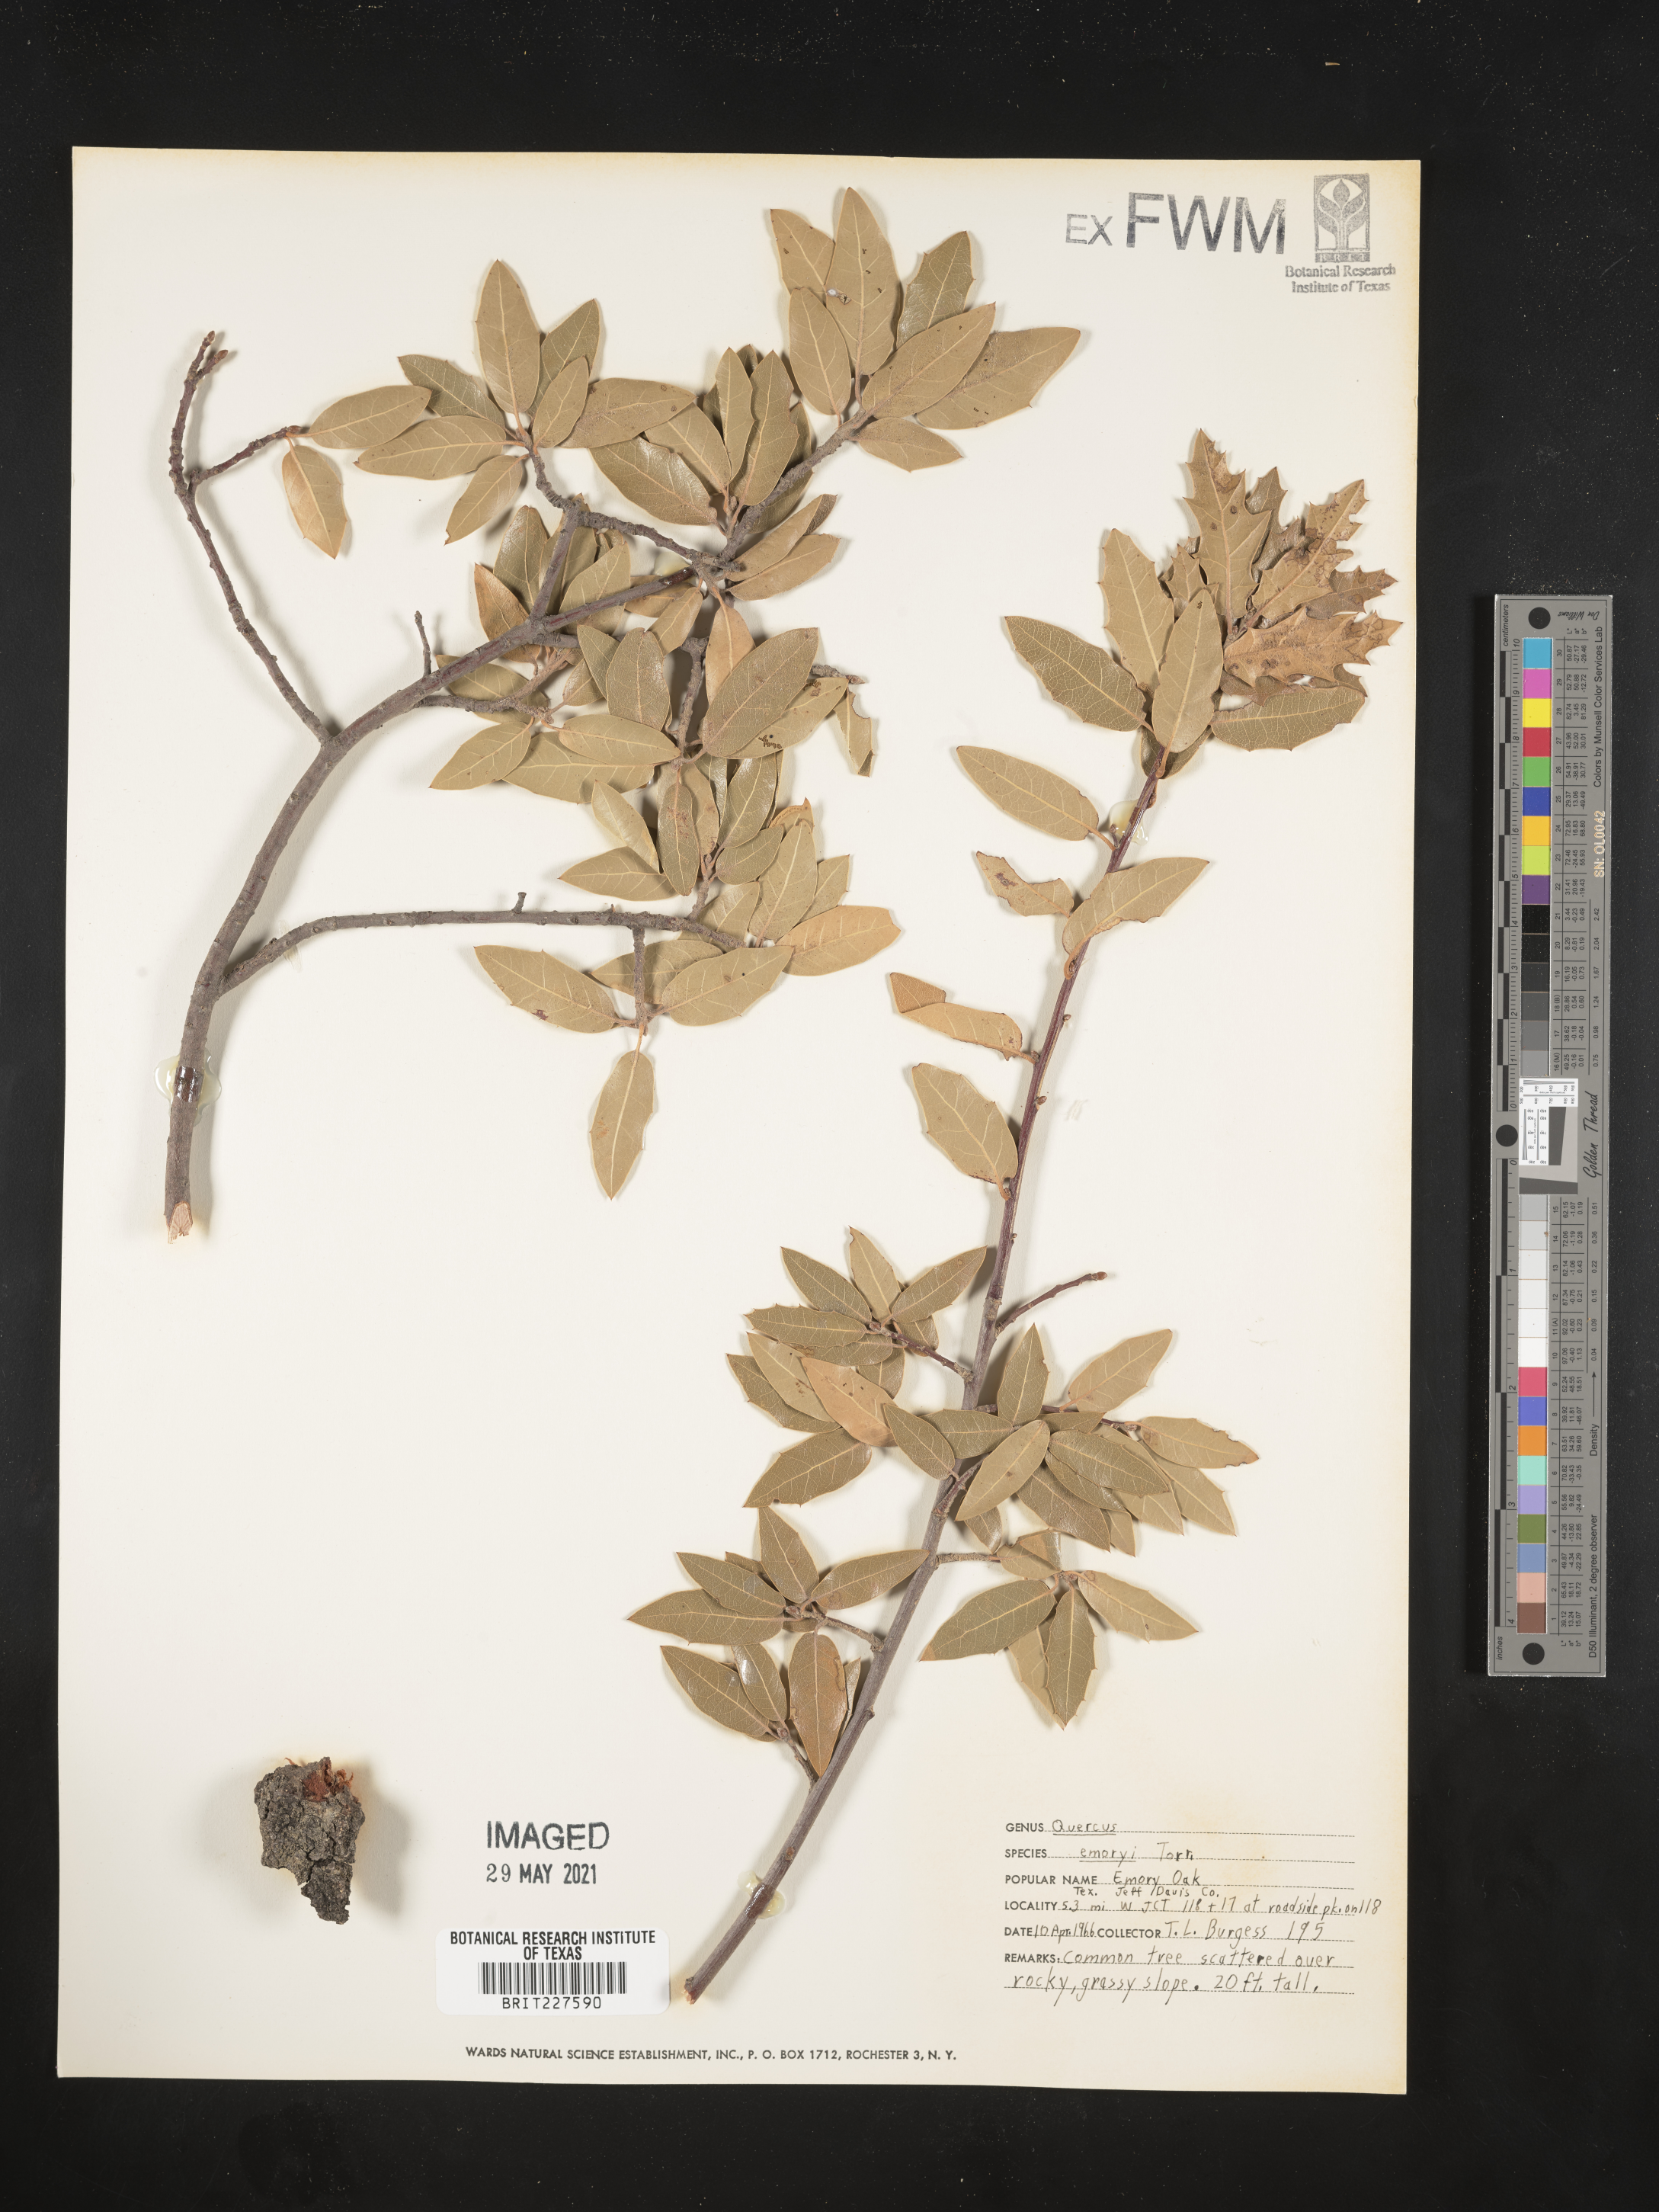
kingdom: Plantae
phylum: Tracheophyta
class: Magnoliopsida
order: Fagales
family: Fagaceae
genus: Quercus
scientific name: Quercus emoryi
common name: Emory oak
